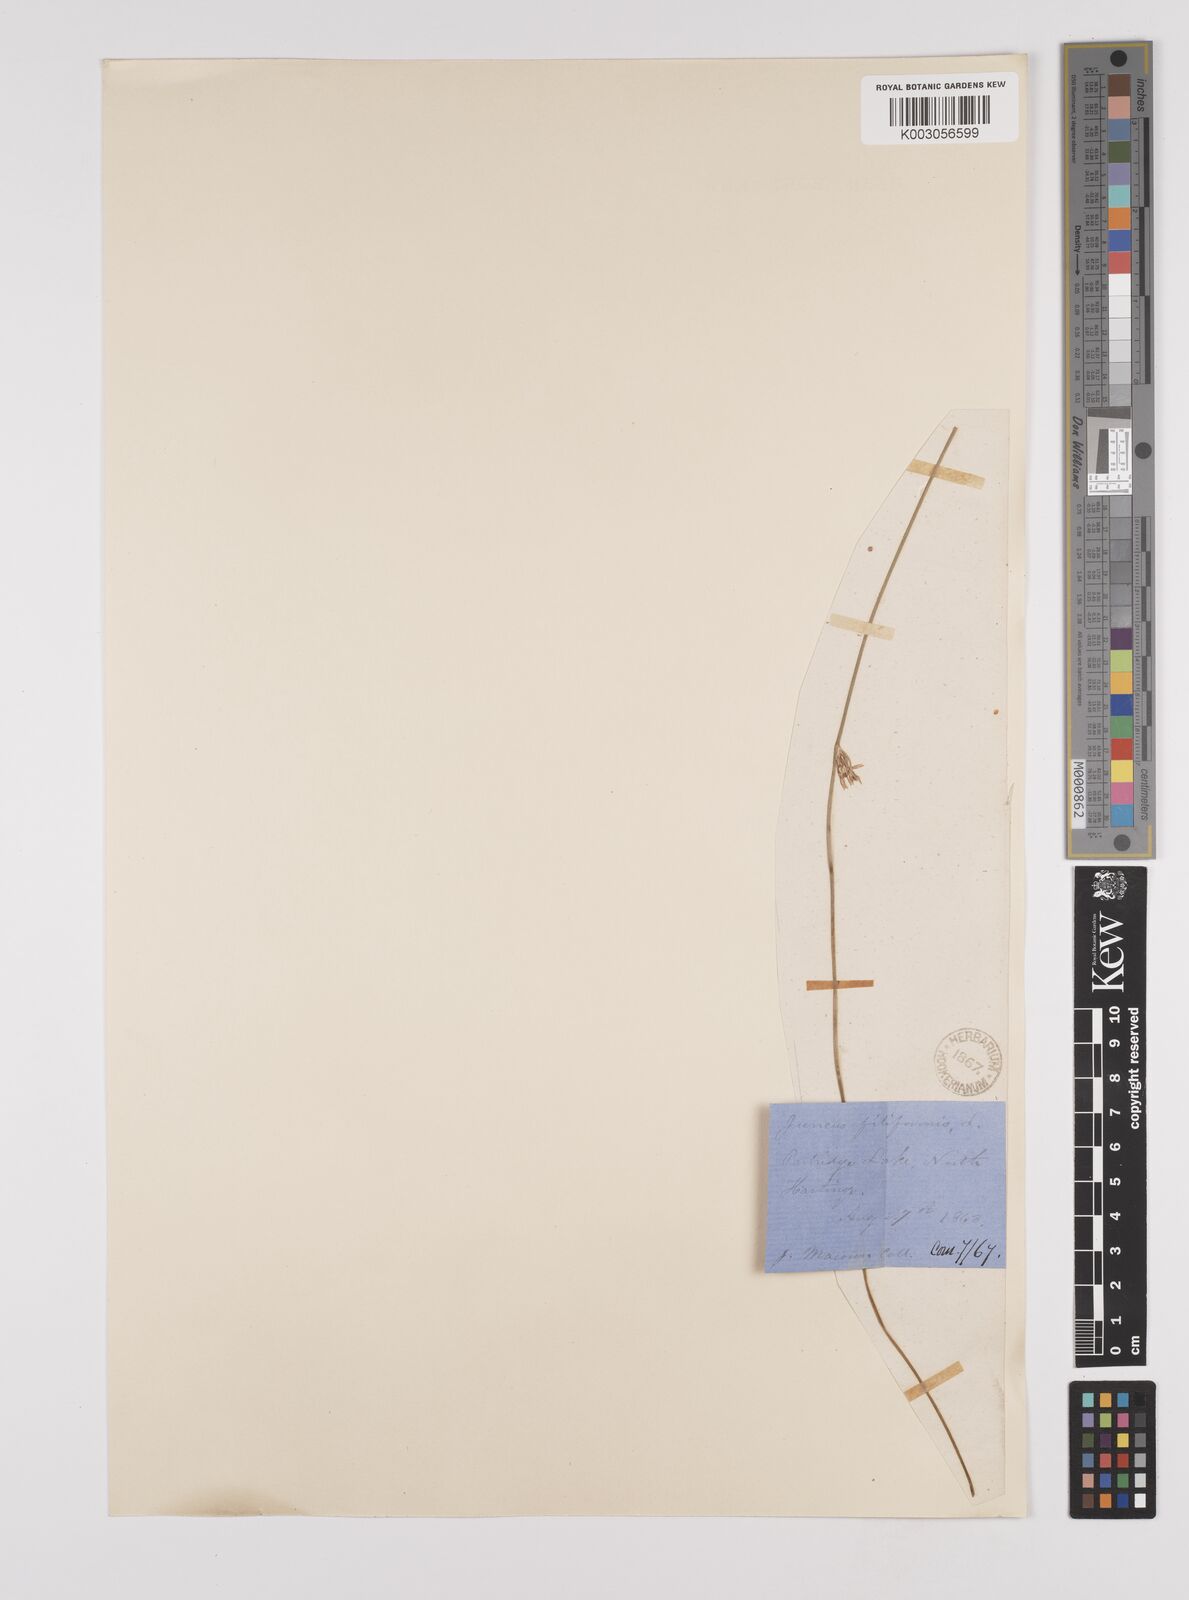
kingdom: Plantae
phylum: Tracheophyta
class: Liliopsida
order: Poales
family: Juncaceae
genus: Juncus
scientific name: Juncus filiformis
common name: Thread rush
